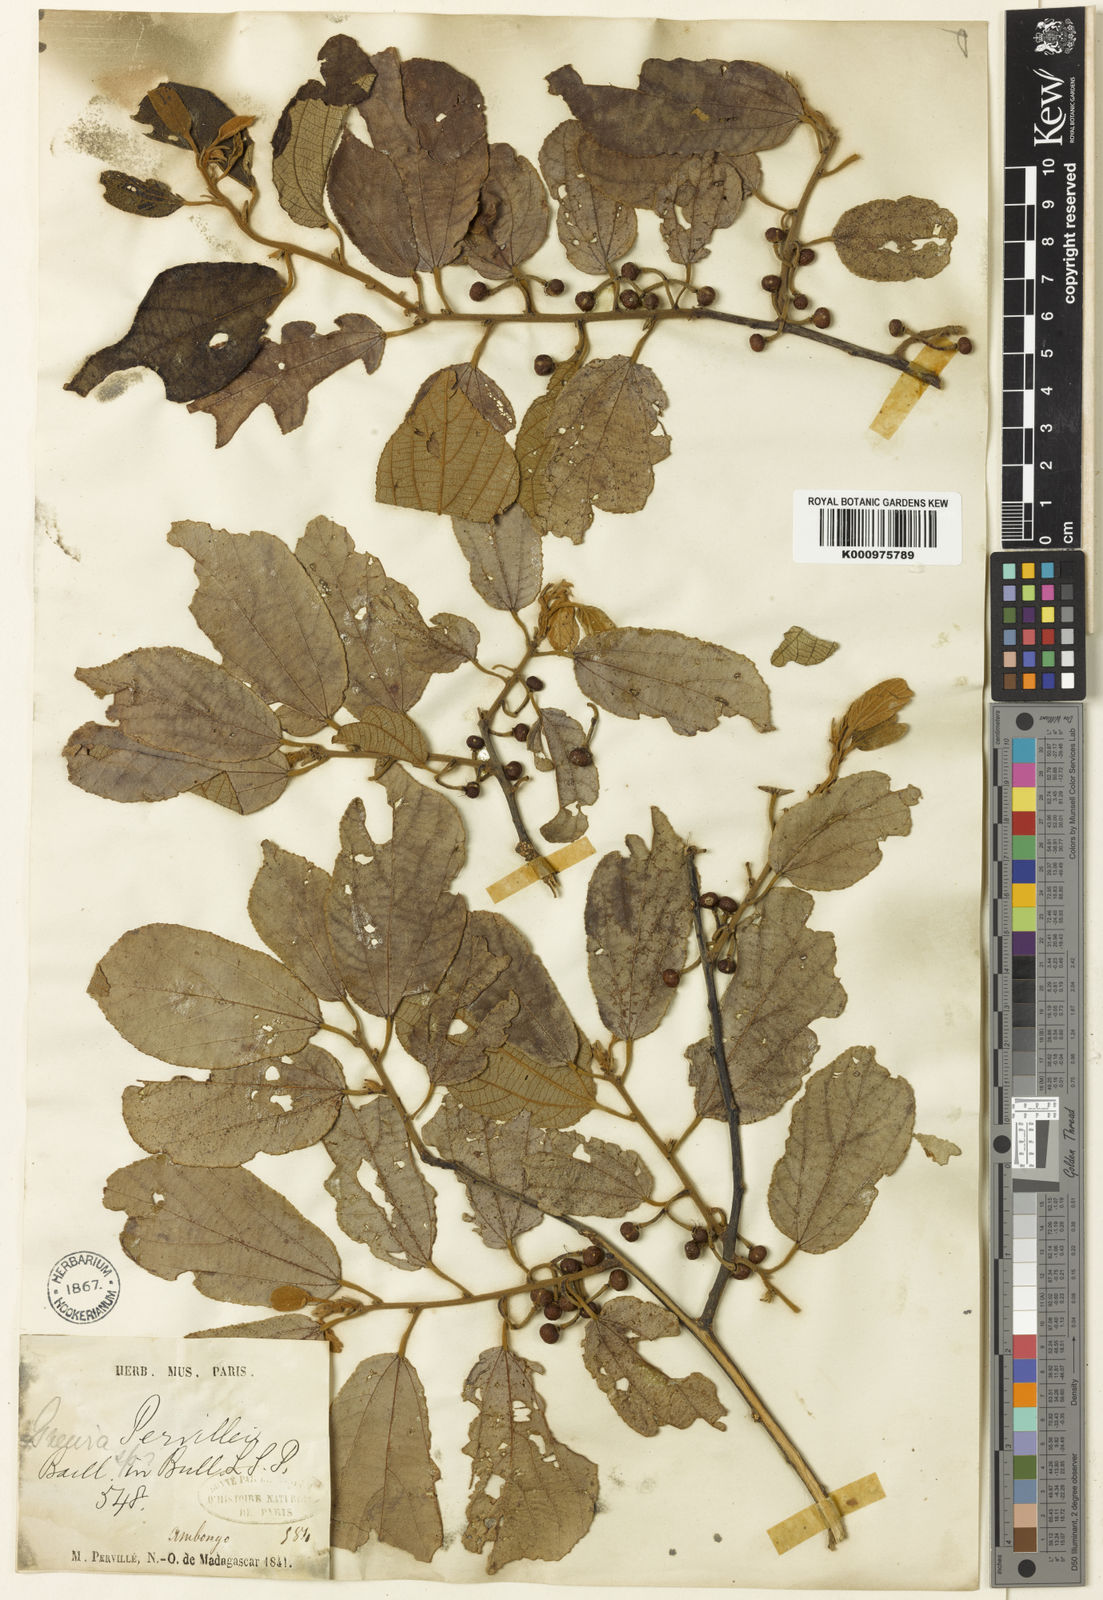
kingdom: Plantae
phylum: Tracheophyta
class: Magnoliopsida
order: Malvales
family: Malvaceae
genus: Grewia
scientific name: Grewia pervillei
